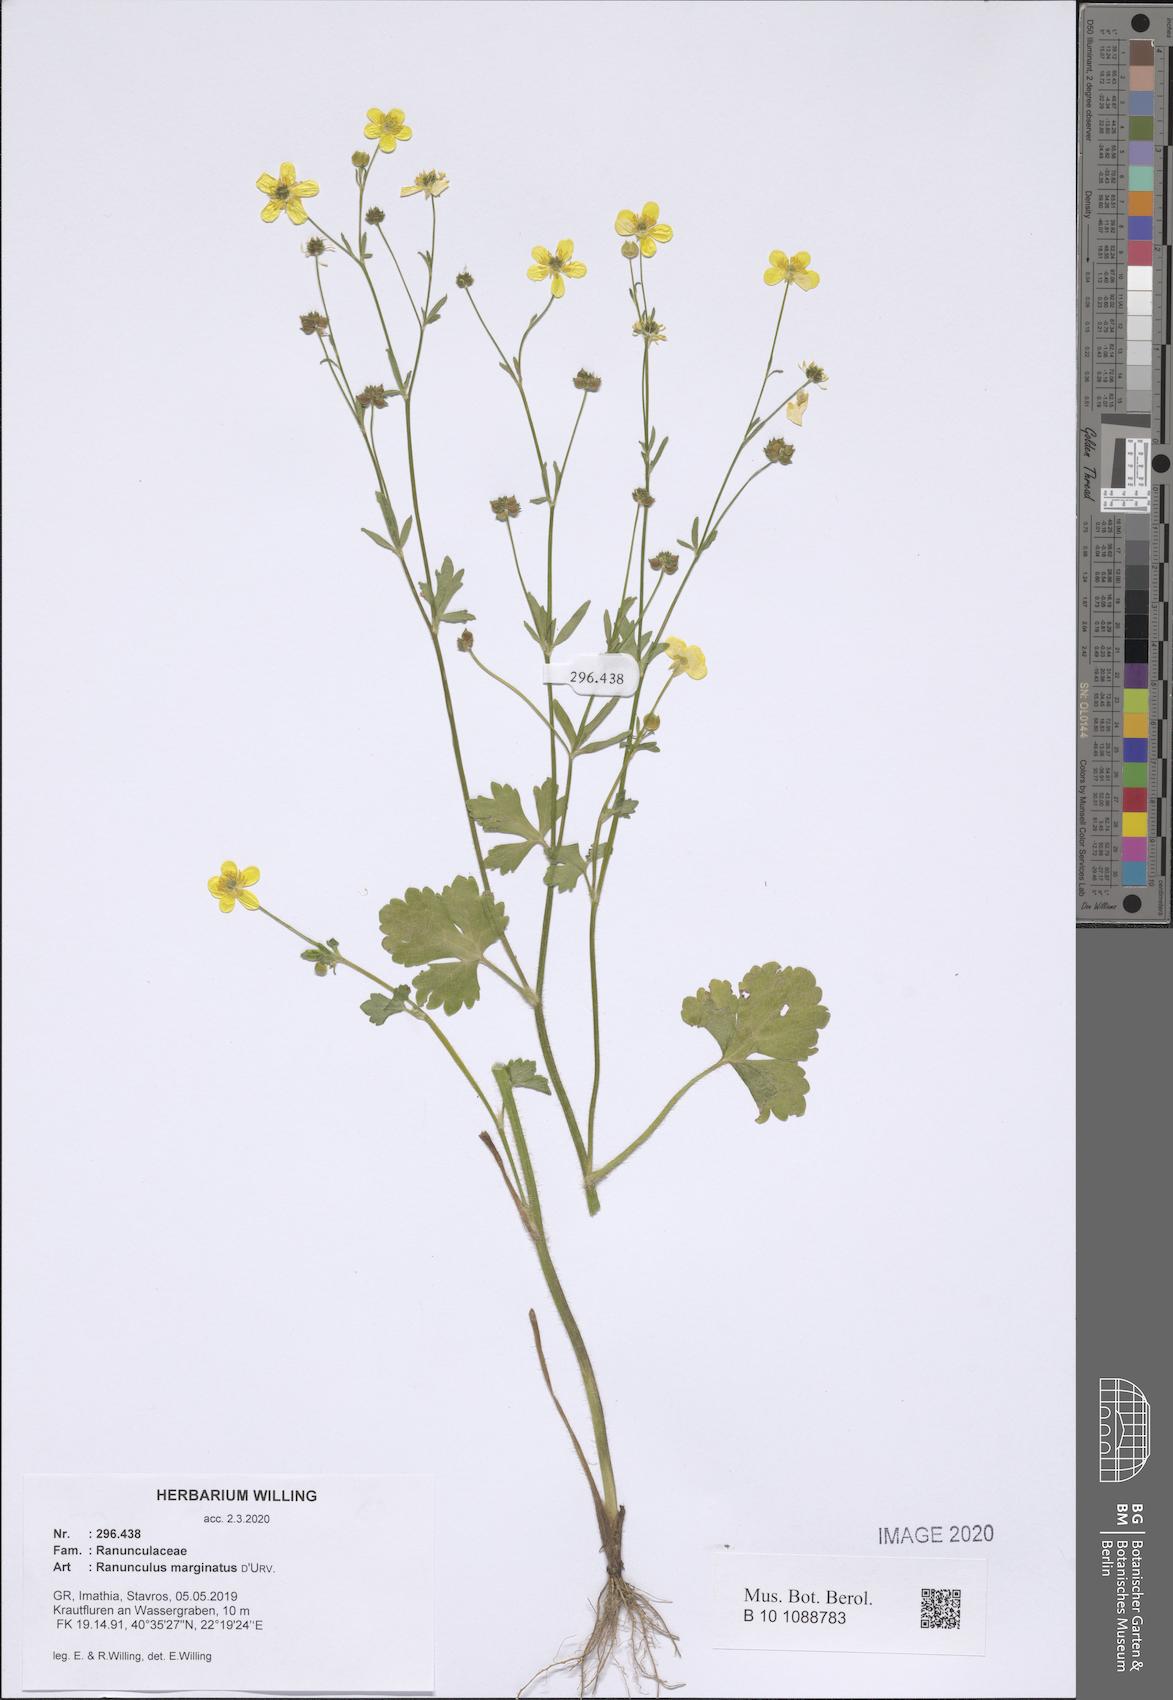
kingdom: Plantae
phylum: Tracheophyta
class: Magnoliopsida
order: Ranunculales
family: Ranunculaceae
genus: Ranunculus
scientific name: Ranunculus marginatus
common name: St. martin's buttercup
